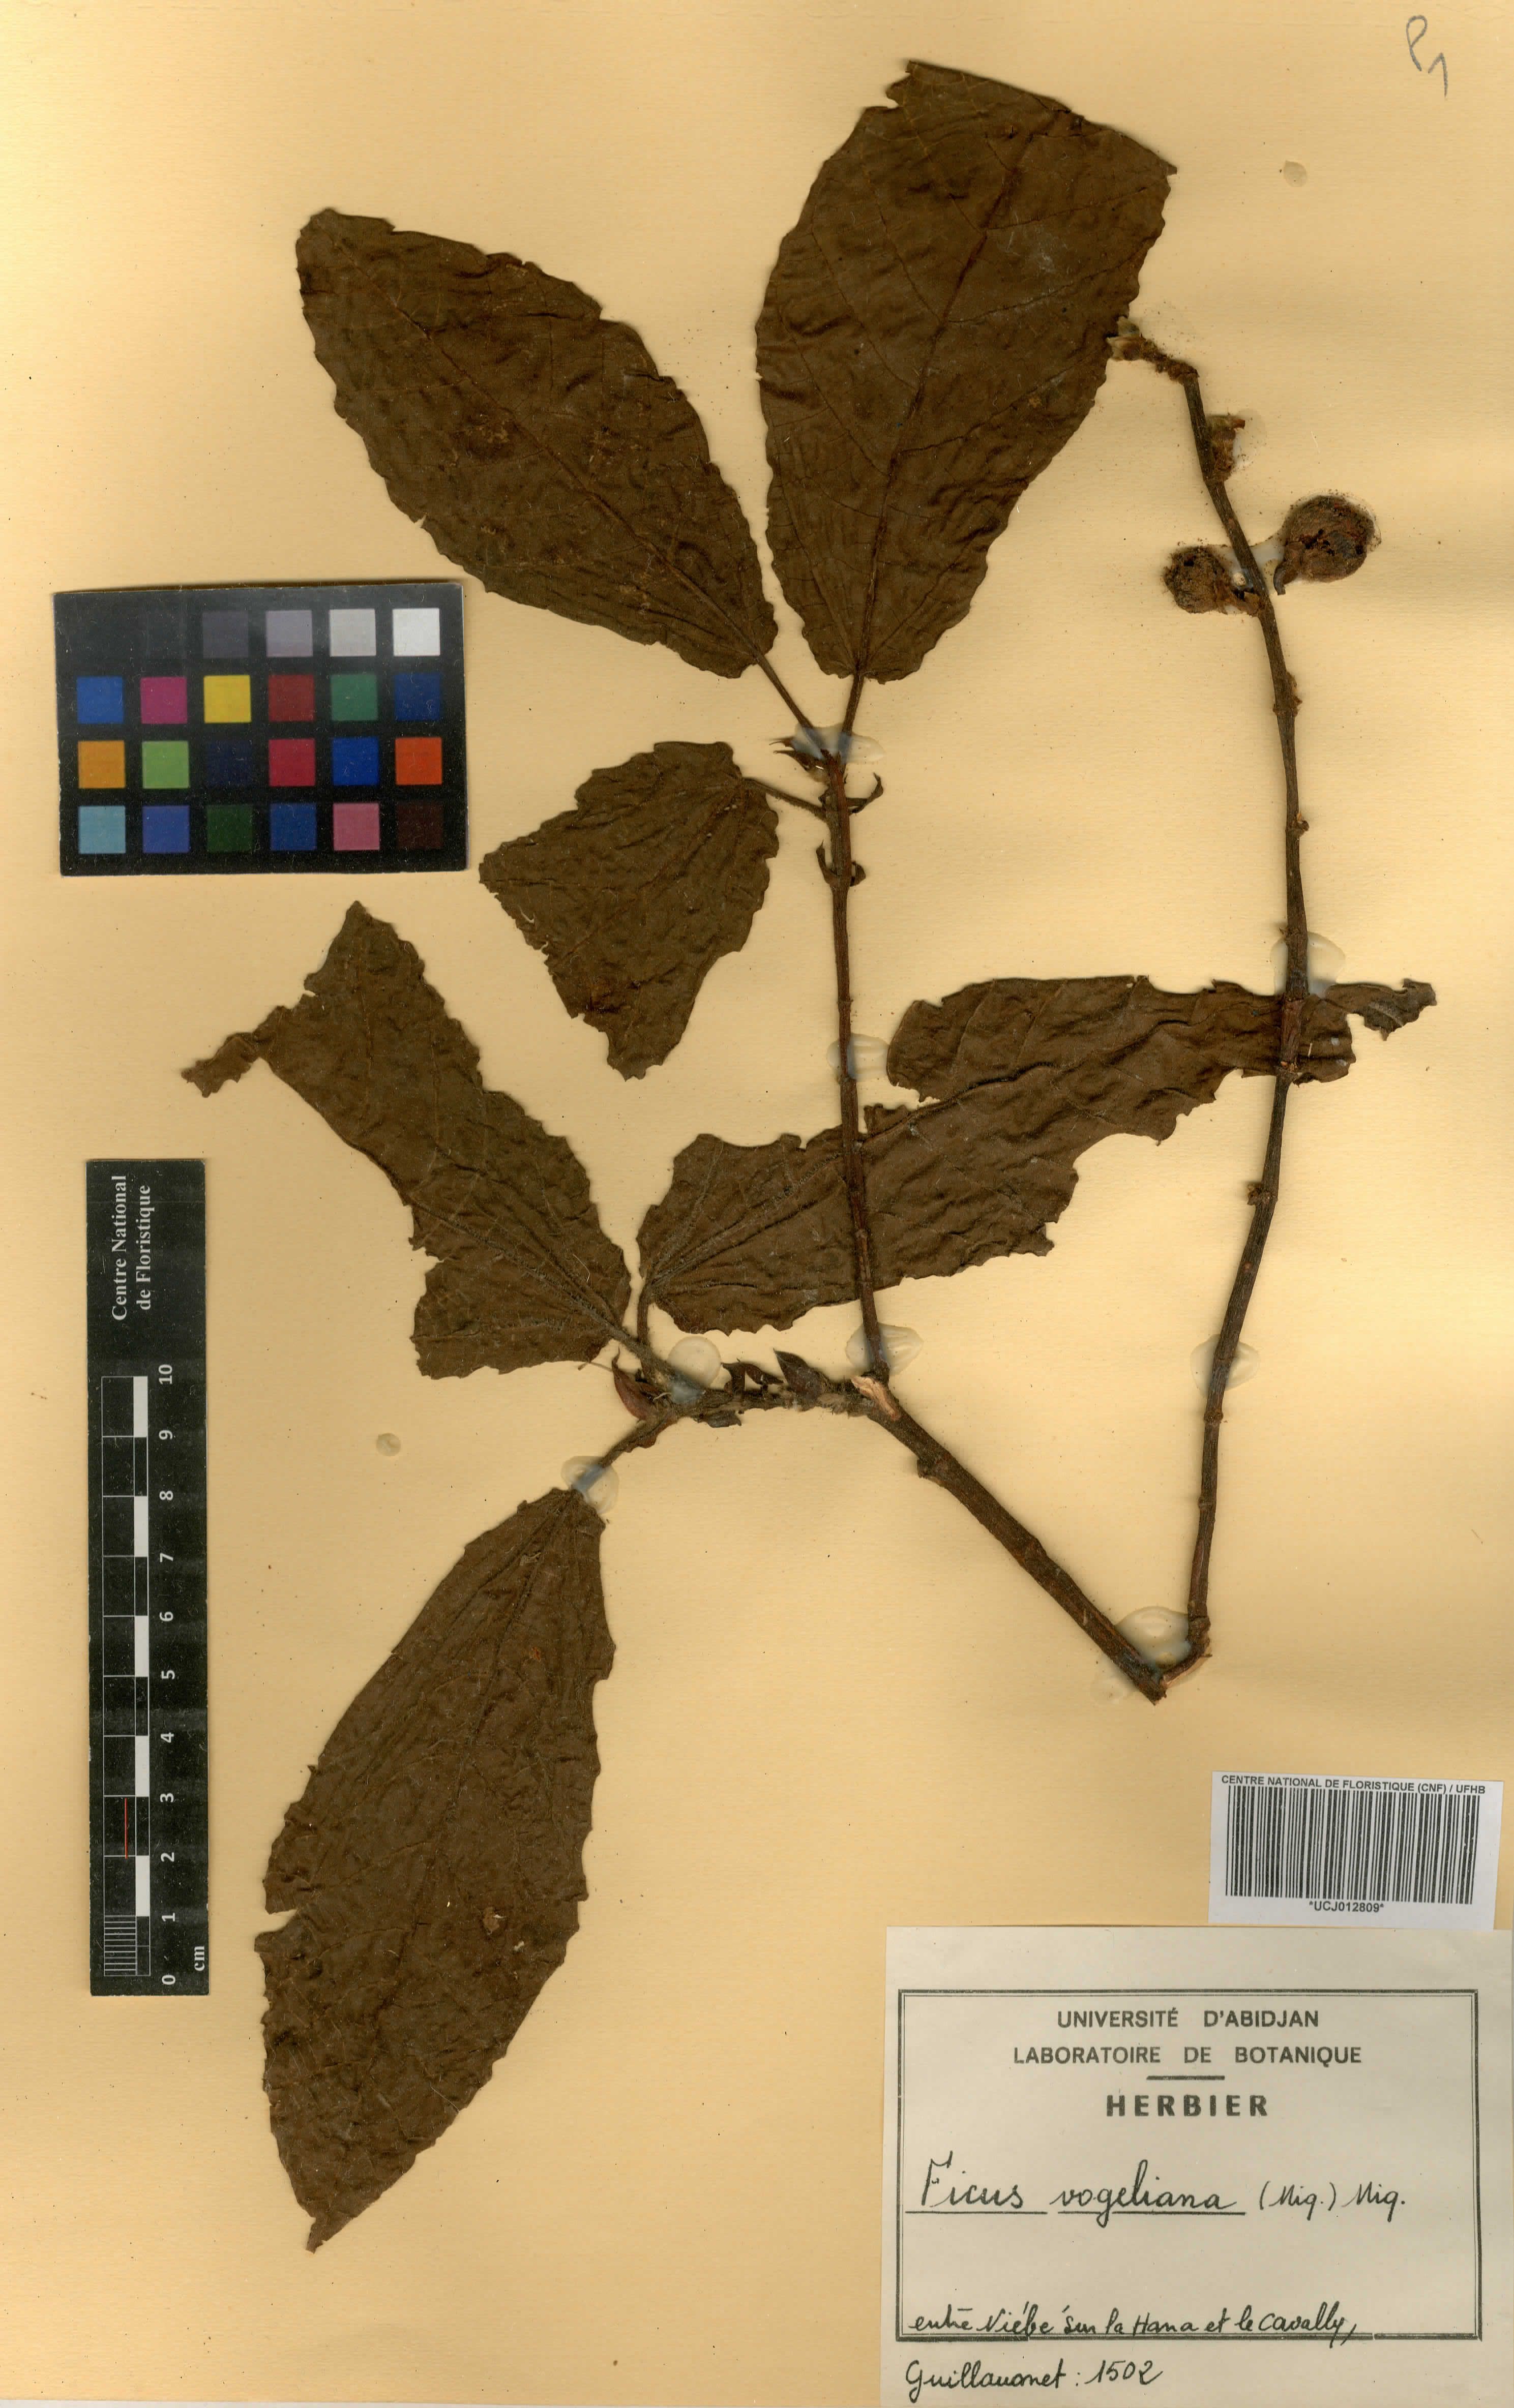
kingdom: Plantae
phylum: Tracheophyta
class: Magnoliopsida
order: Rosales
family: Moraceae
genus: Ficus
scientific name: Ficus vogeliana
